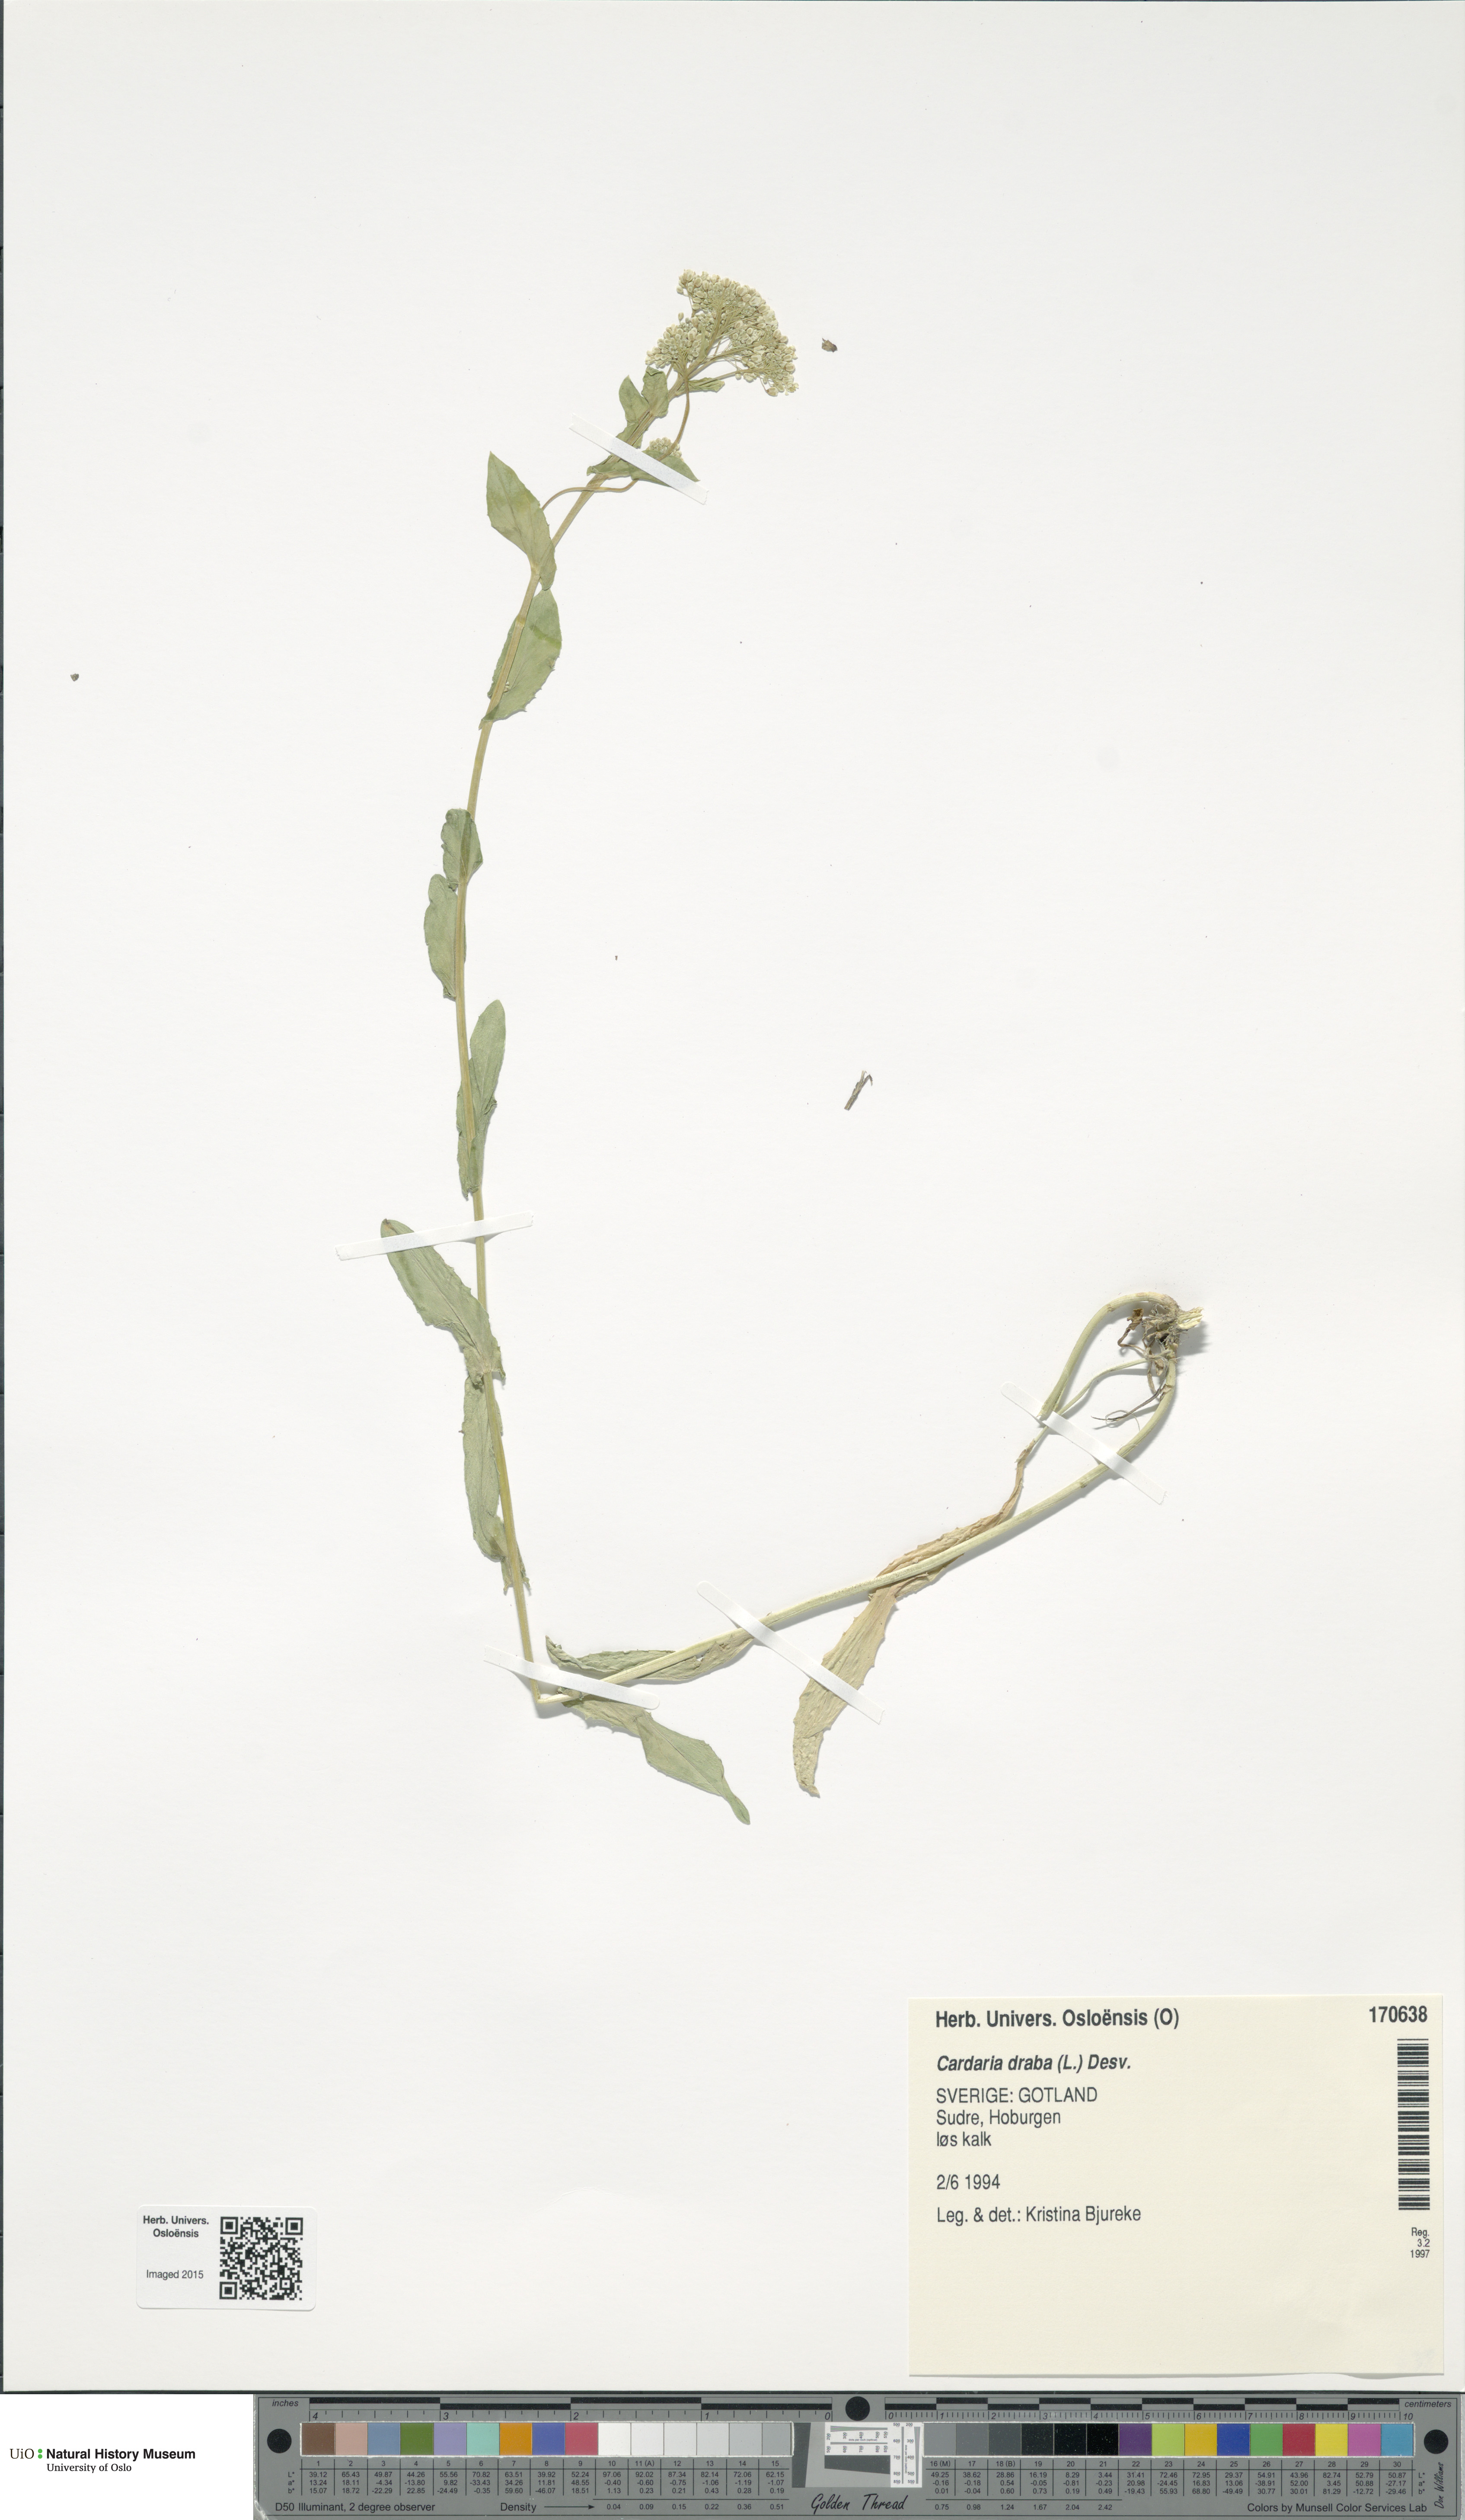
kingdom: Plantae
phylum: Tracheophyta
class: Magnoliopsida
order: Brassicales
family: Brassicaceae
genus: Lepidium
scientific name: Lepidium draba
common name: Hoary cress
